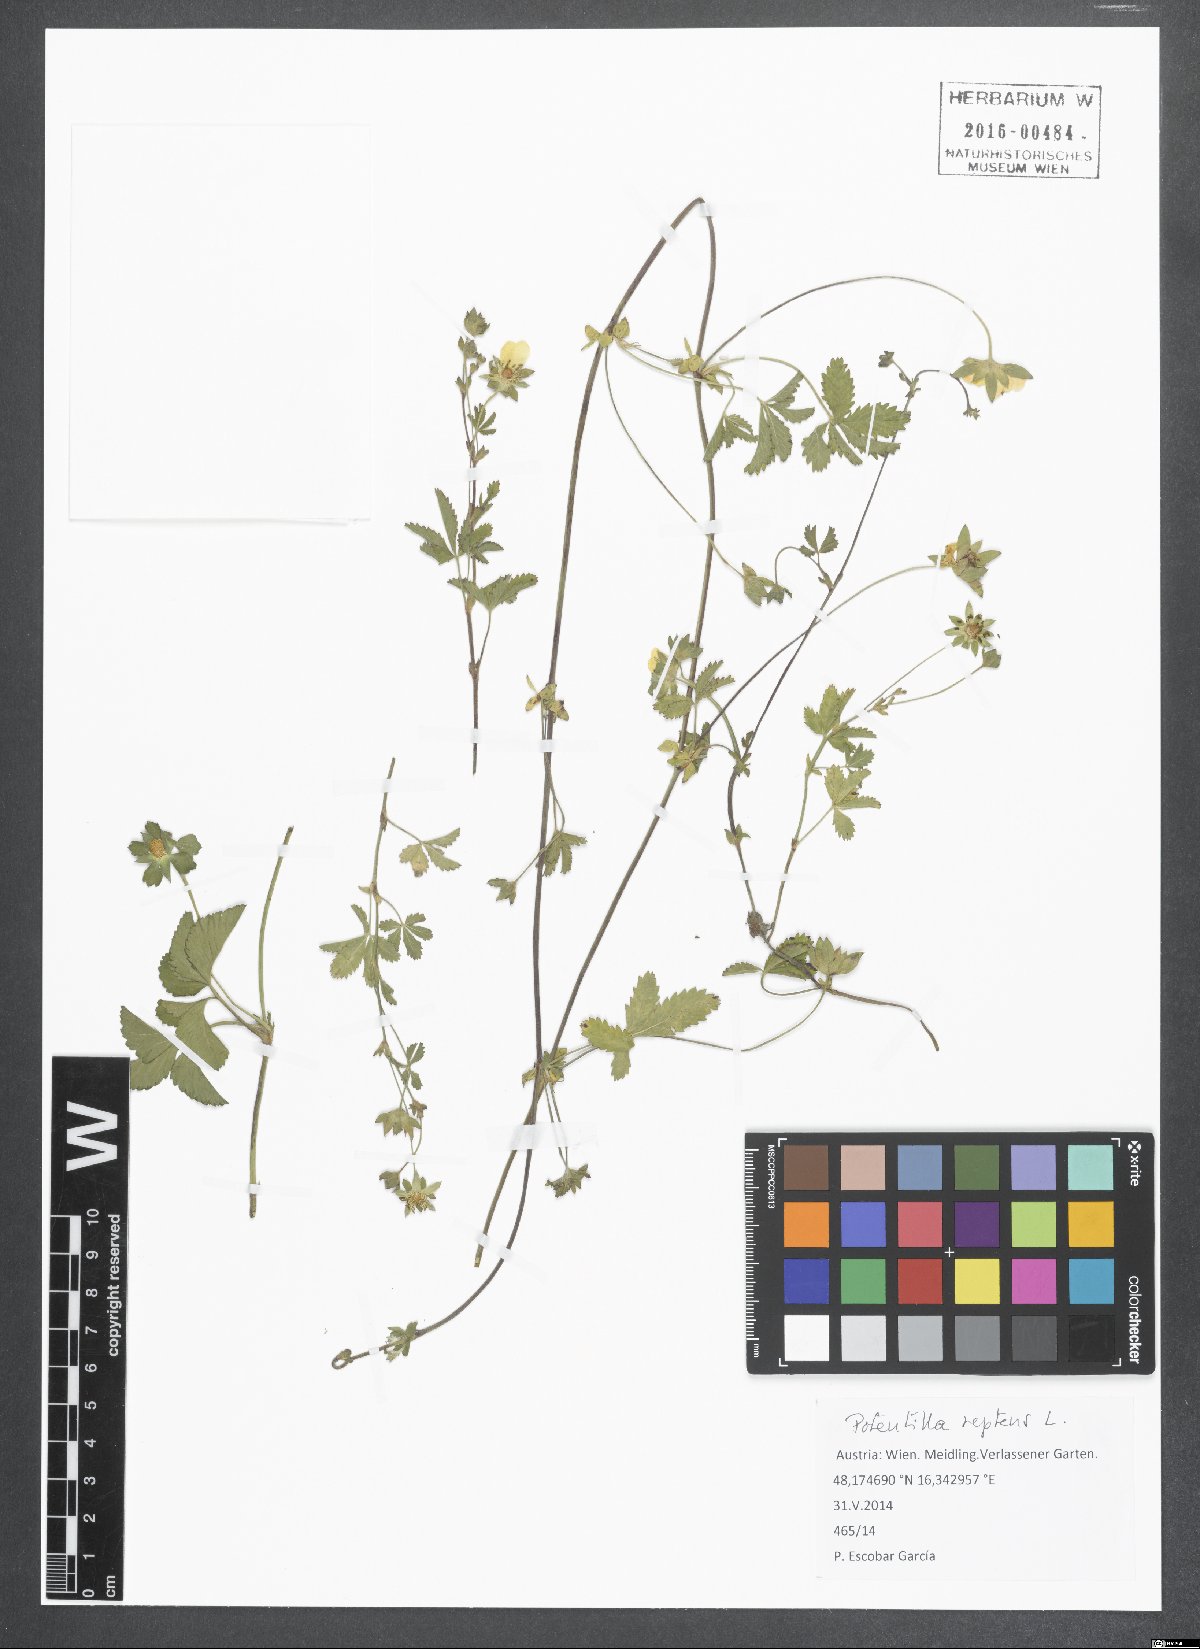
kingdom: Plantae
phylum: Tracheophyta
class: Magnoliopsida
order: Rosales
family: Rosaceae
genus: Potentilla
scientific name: Potentilla reptans
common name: Creeping cinquefoil
